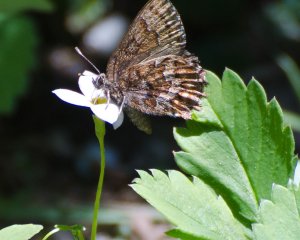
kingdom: Animalia
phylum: Arthropoda
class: Insecta
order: Lepidoptera
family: Lycaenidae
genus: Incisalia
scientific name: Incisalia niphon
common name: Eastern Pine Elfin
